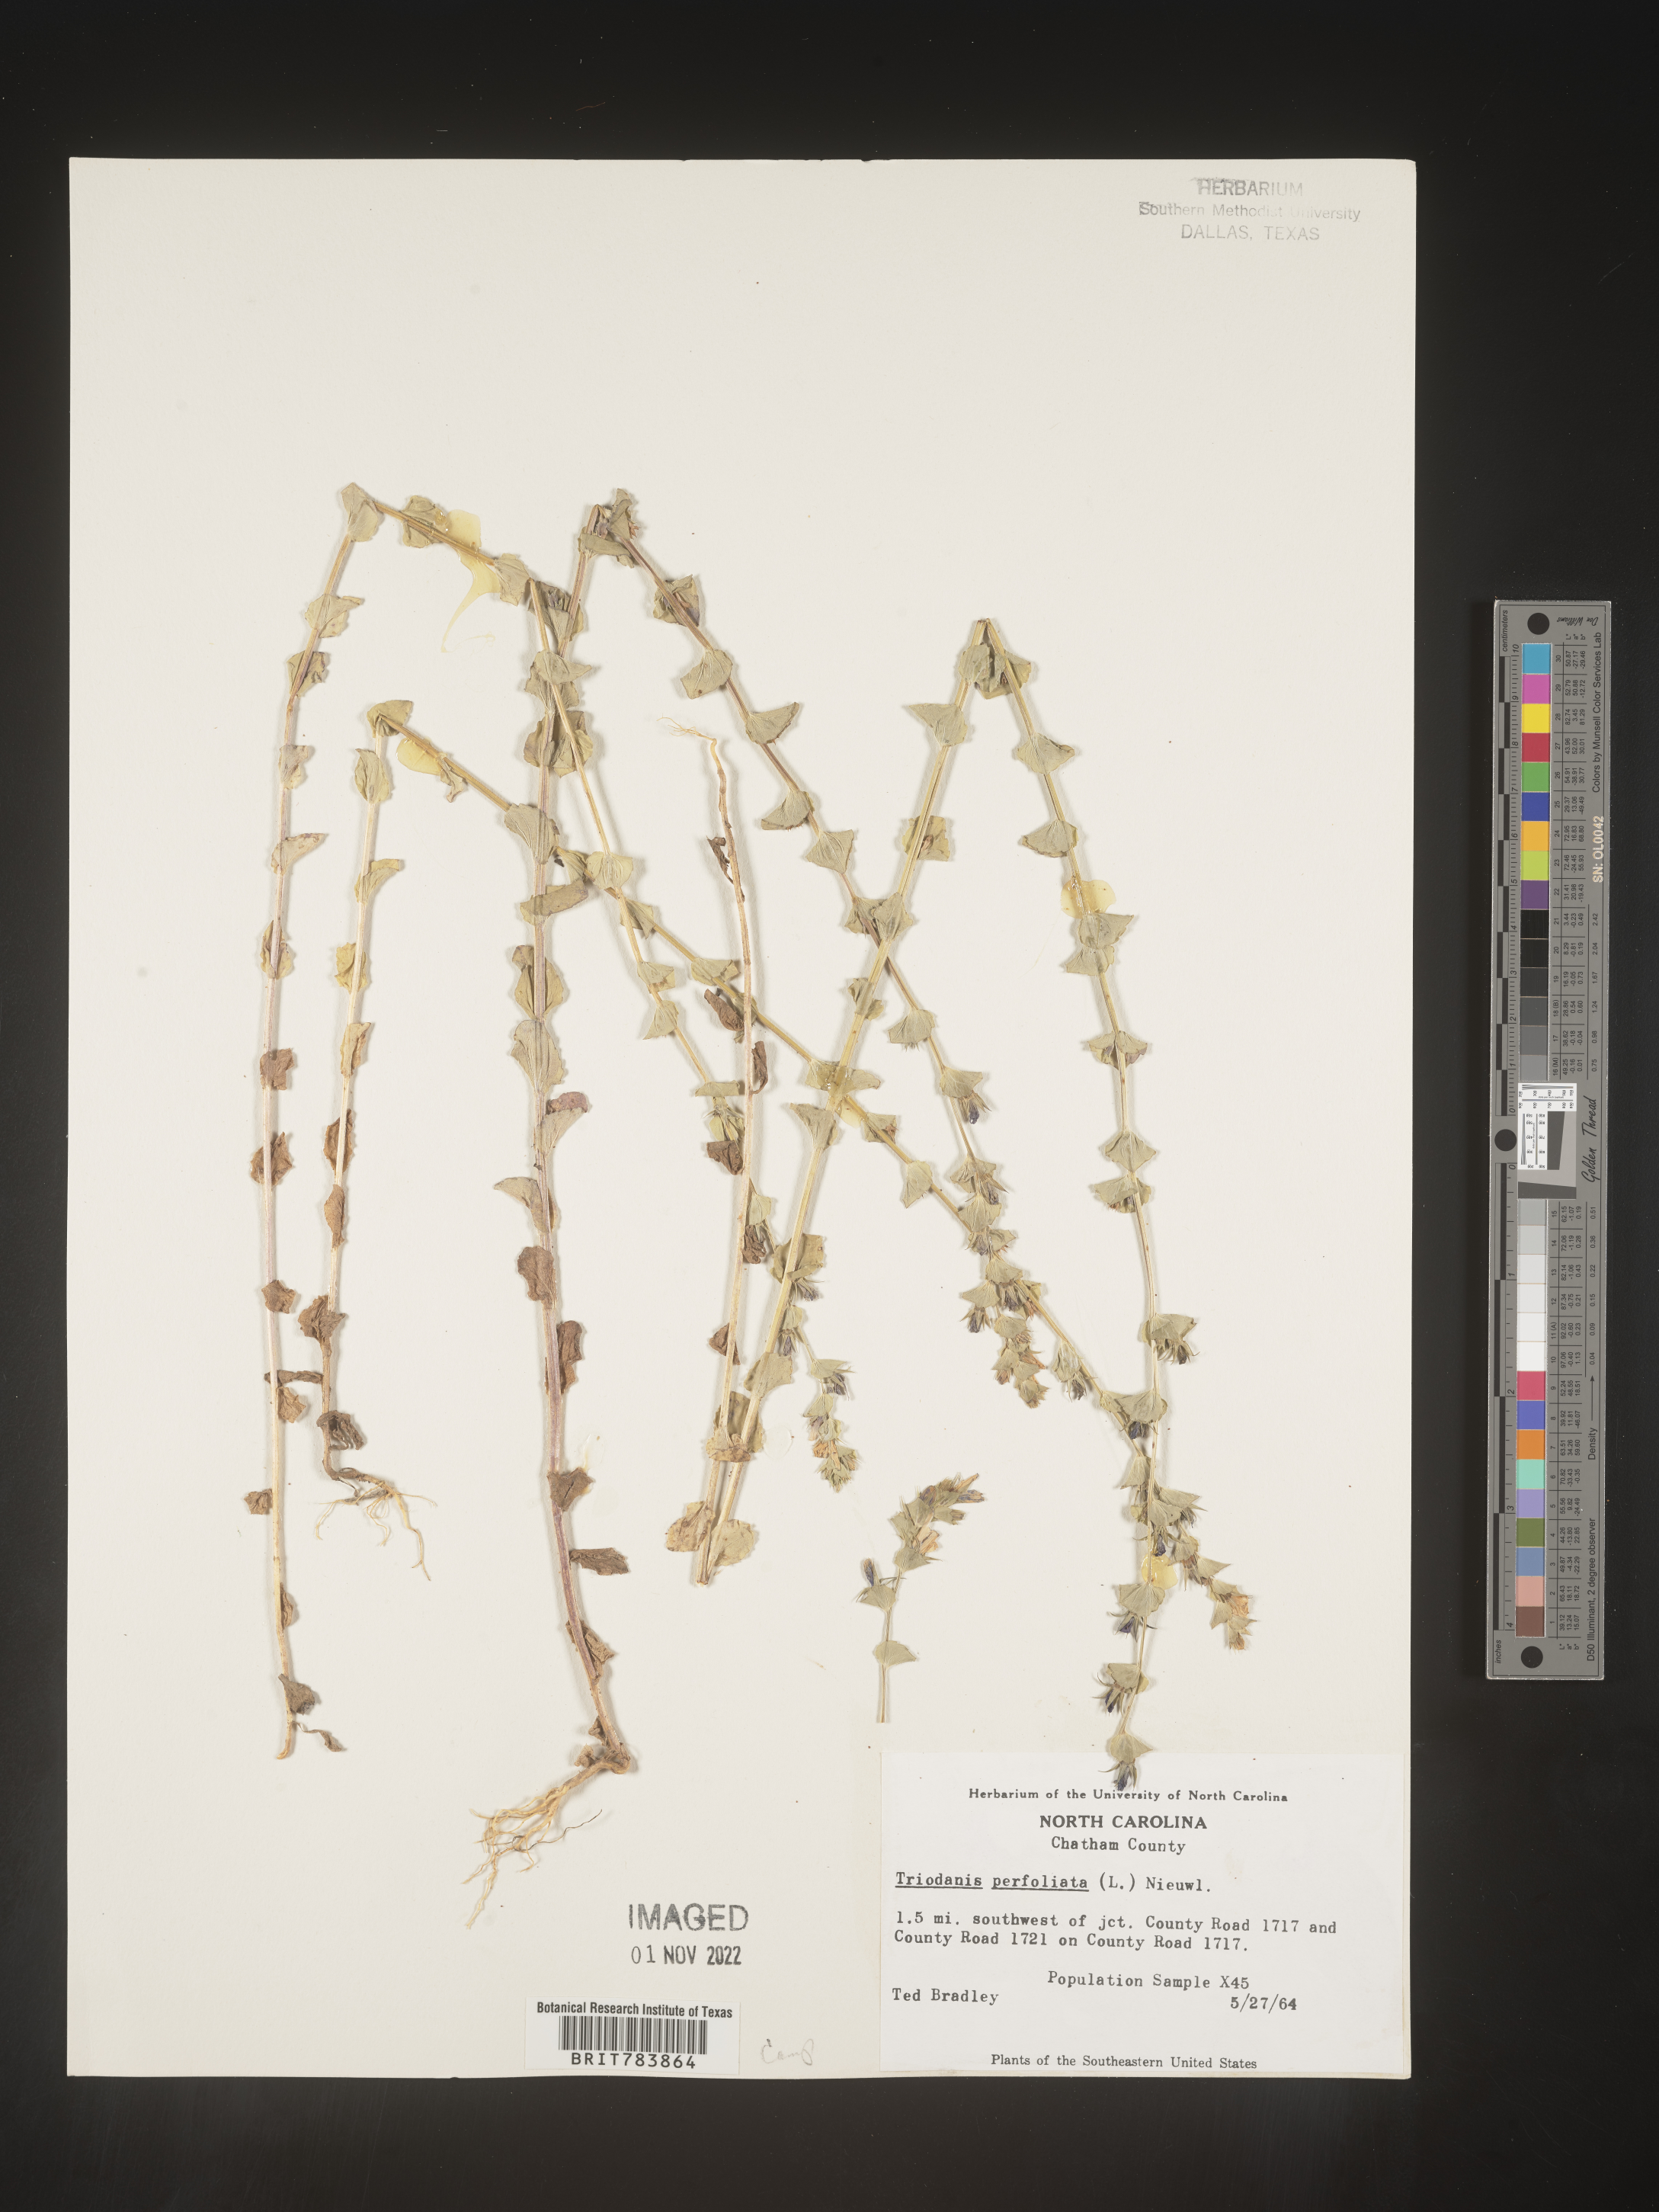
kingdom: Plantae
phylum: Tracheophyta
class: Magnoliopsida
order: Asterales
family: Campanulaceae
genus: Triodanis
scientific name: Triodanis perfoliata
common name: Clasping venus' looking-glass
